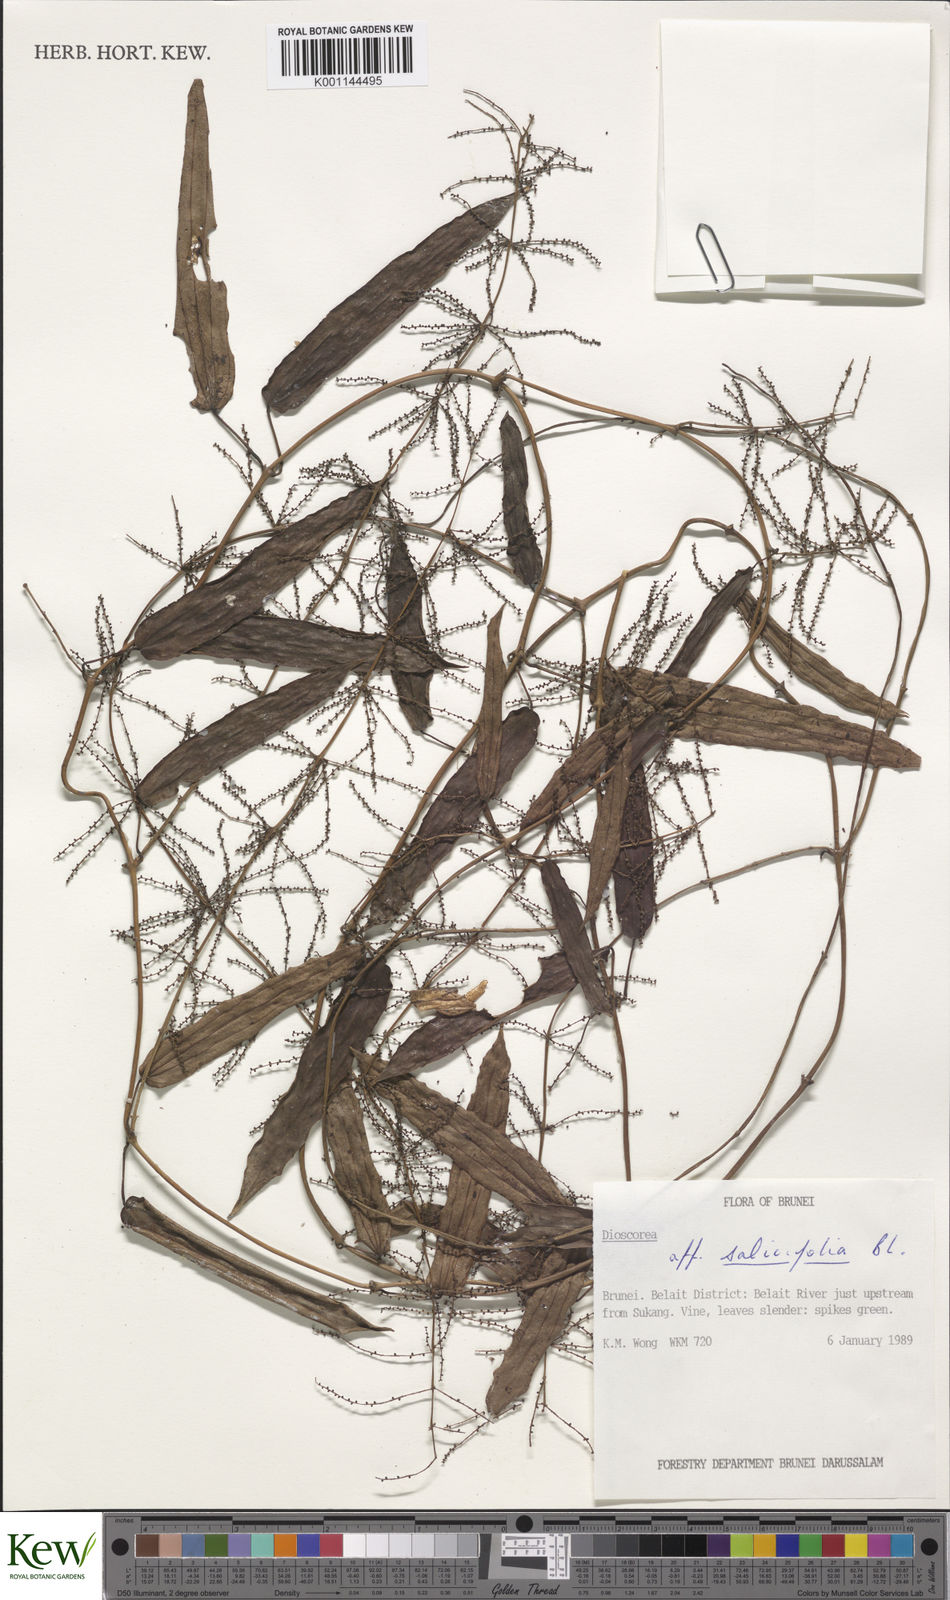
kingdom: Plantae
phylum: Tracheophyta
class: Liliopsida
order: Dioscoreales
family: Dioscoreaceae
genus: Dioscorea
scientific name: Dioscorea salicifolia
